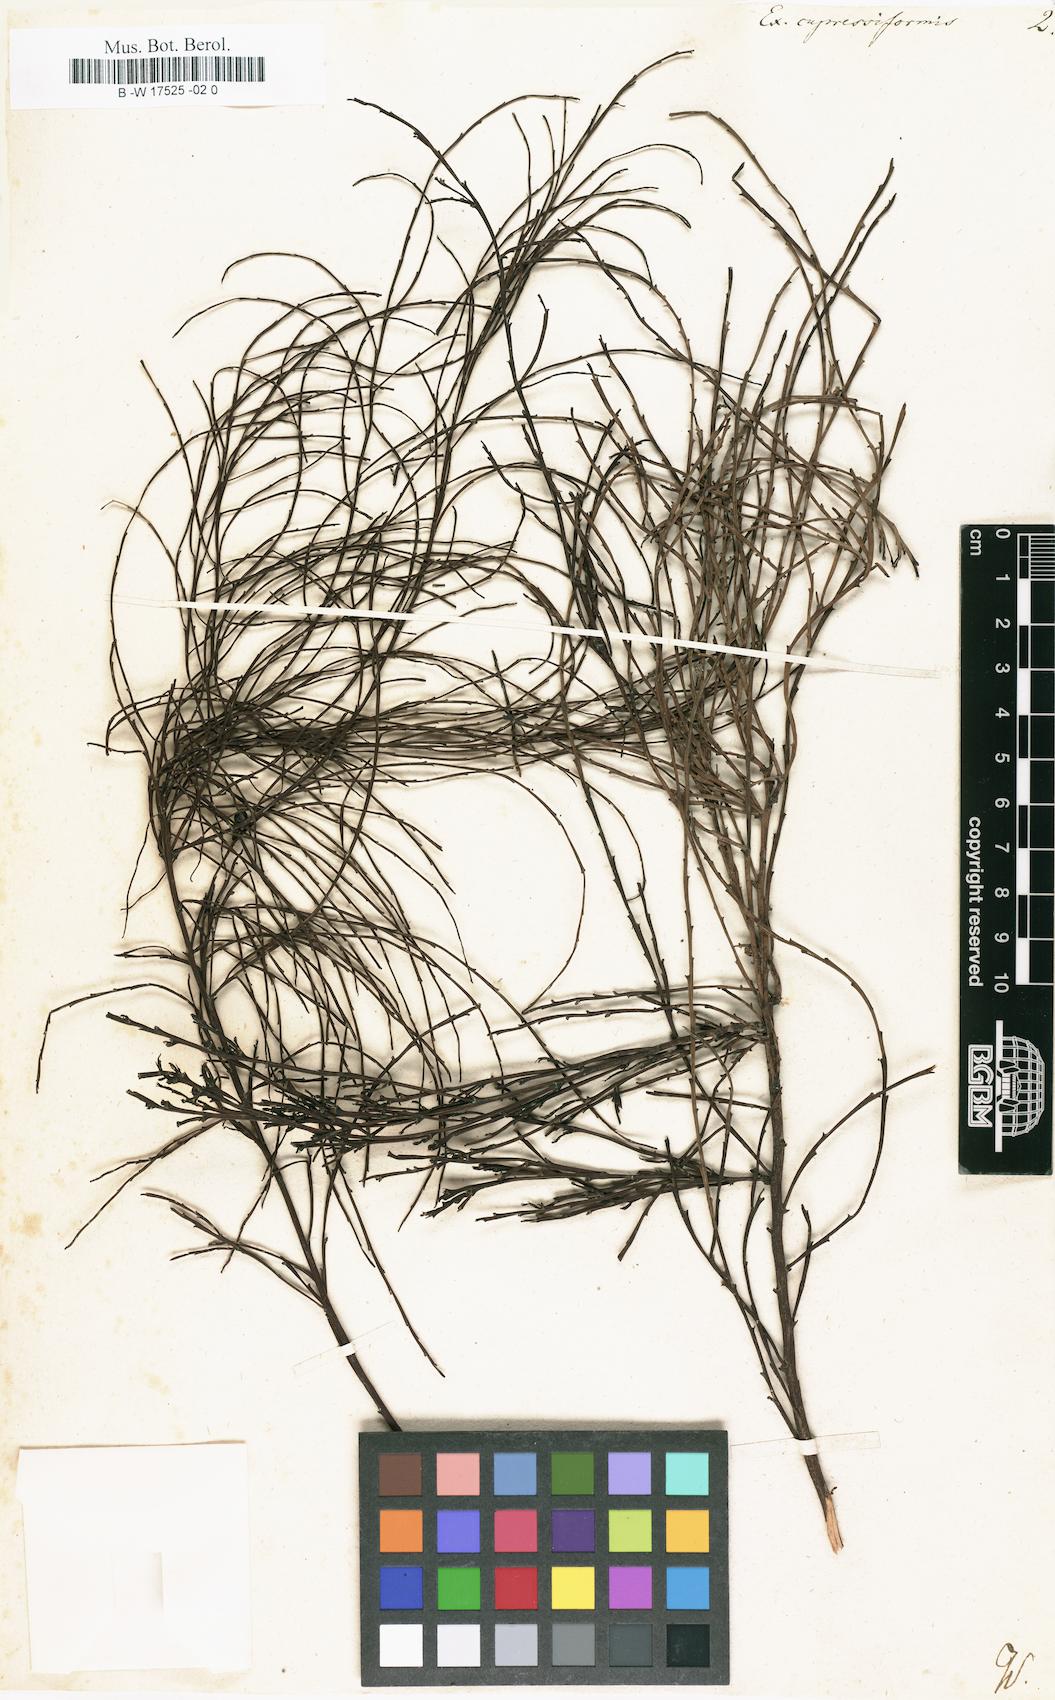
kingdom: Plantae
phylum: Tracheophyta
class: Magnoliopsida
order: Santalales
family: Santalaceae
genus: Exocarpos
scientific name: Exocarpos cupressiformis
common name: Cherry ballart
